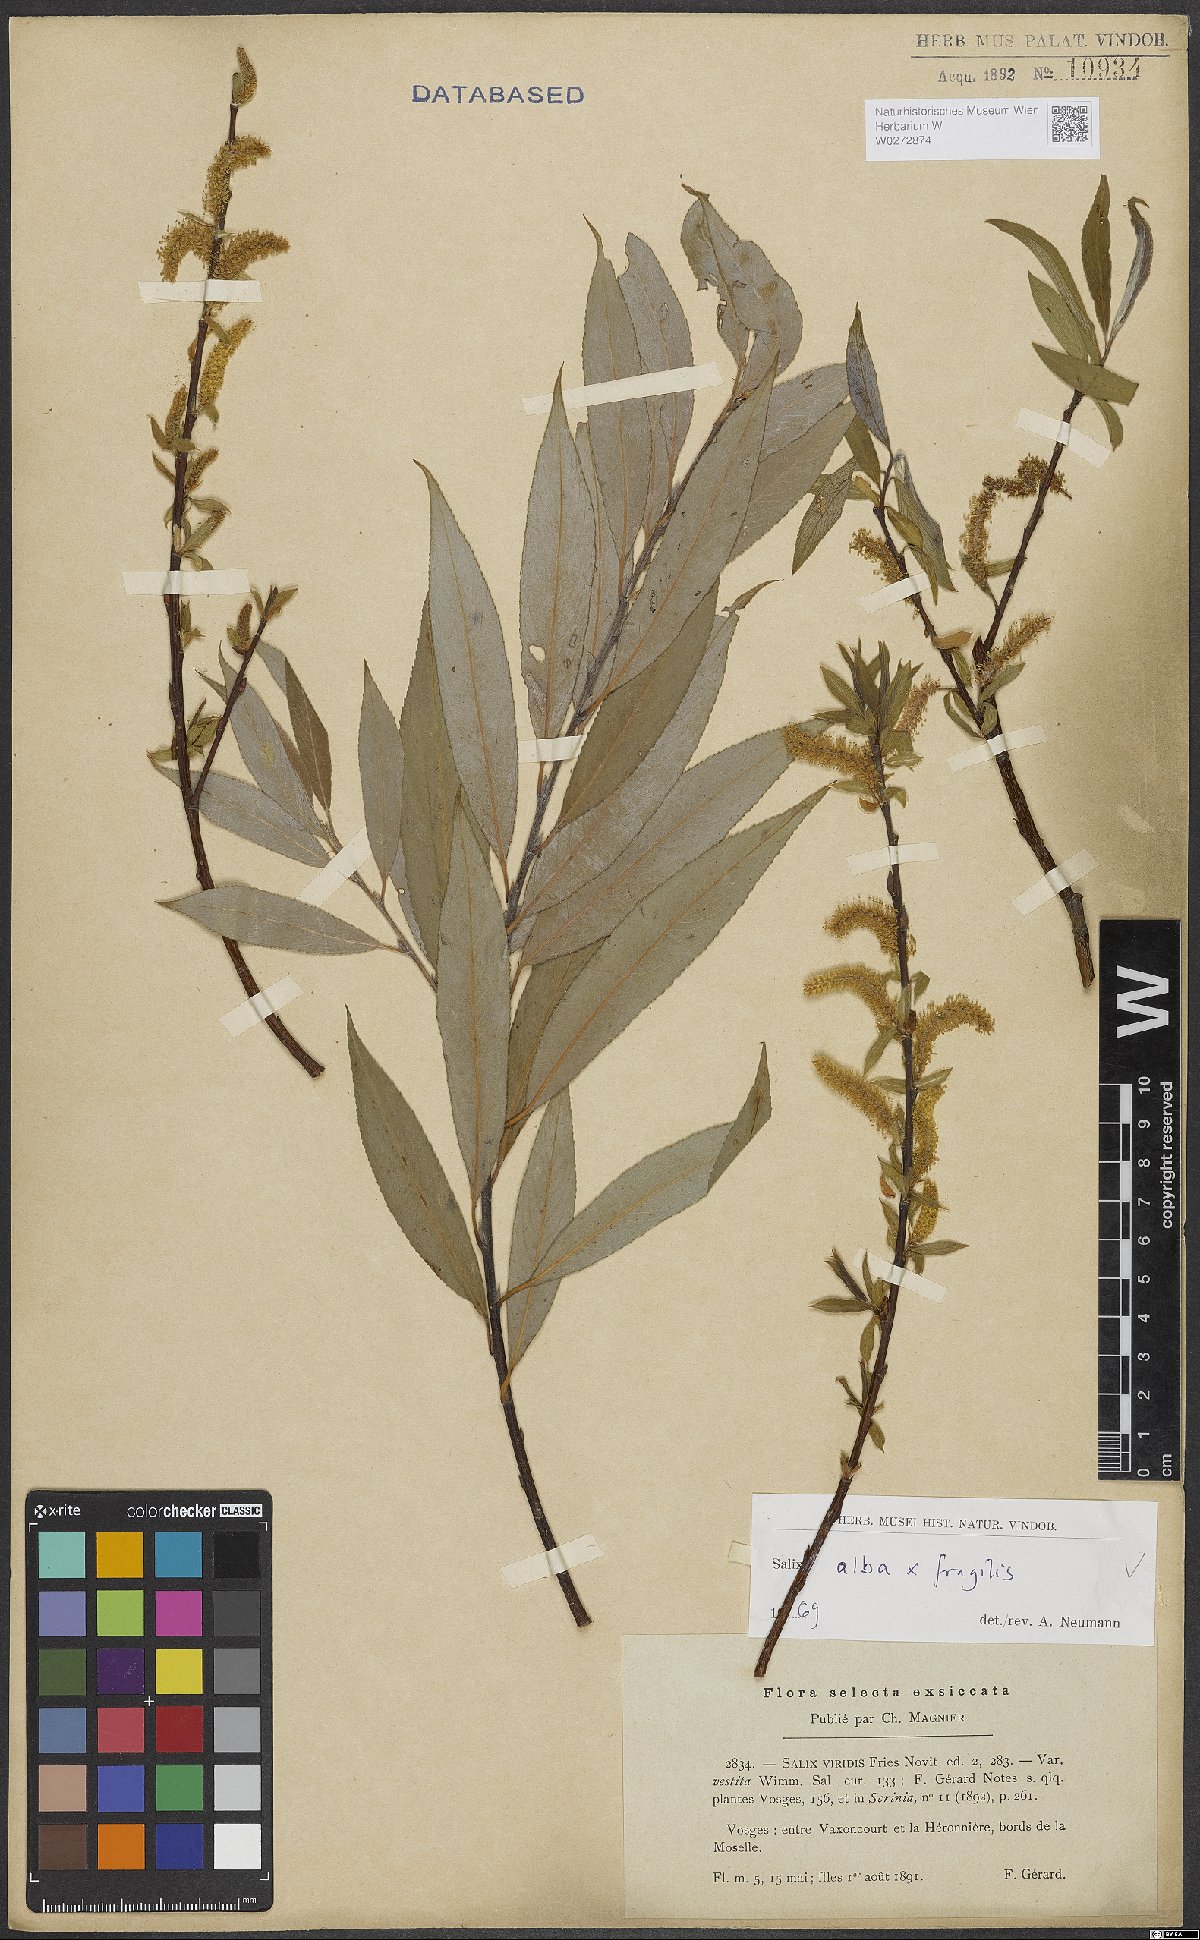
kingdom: Plantae
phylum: Tracheophyta
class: Magnoliopsida
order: Malpighiales
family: Salicaceae
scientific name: Salicaceae
